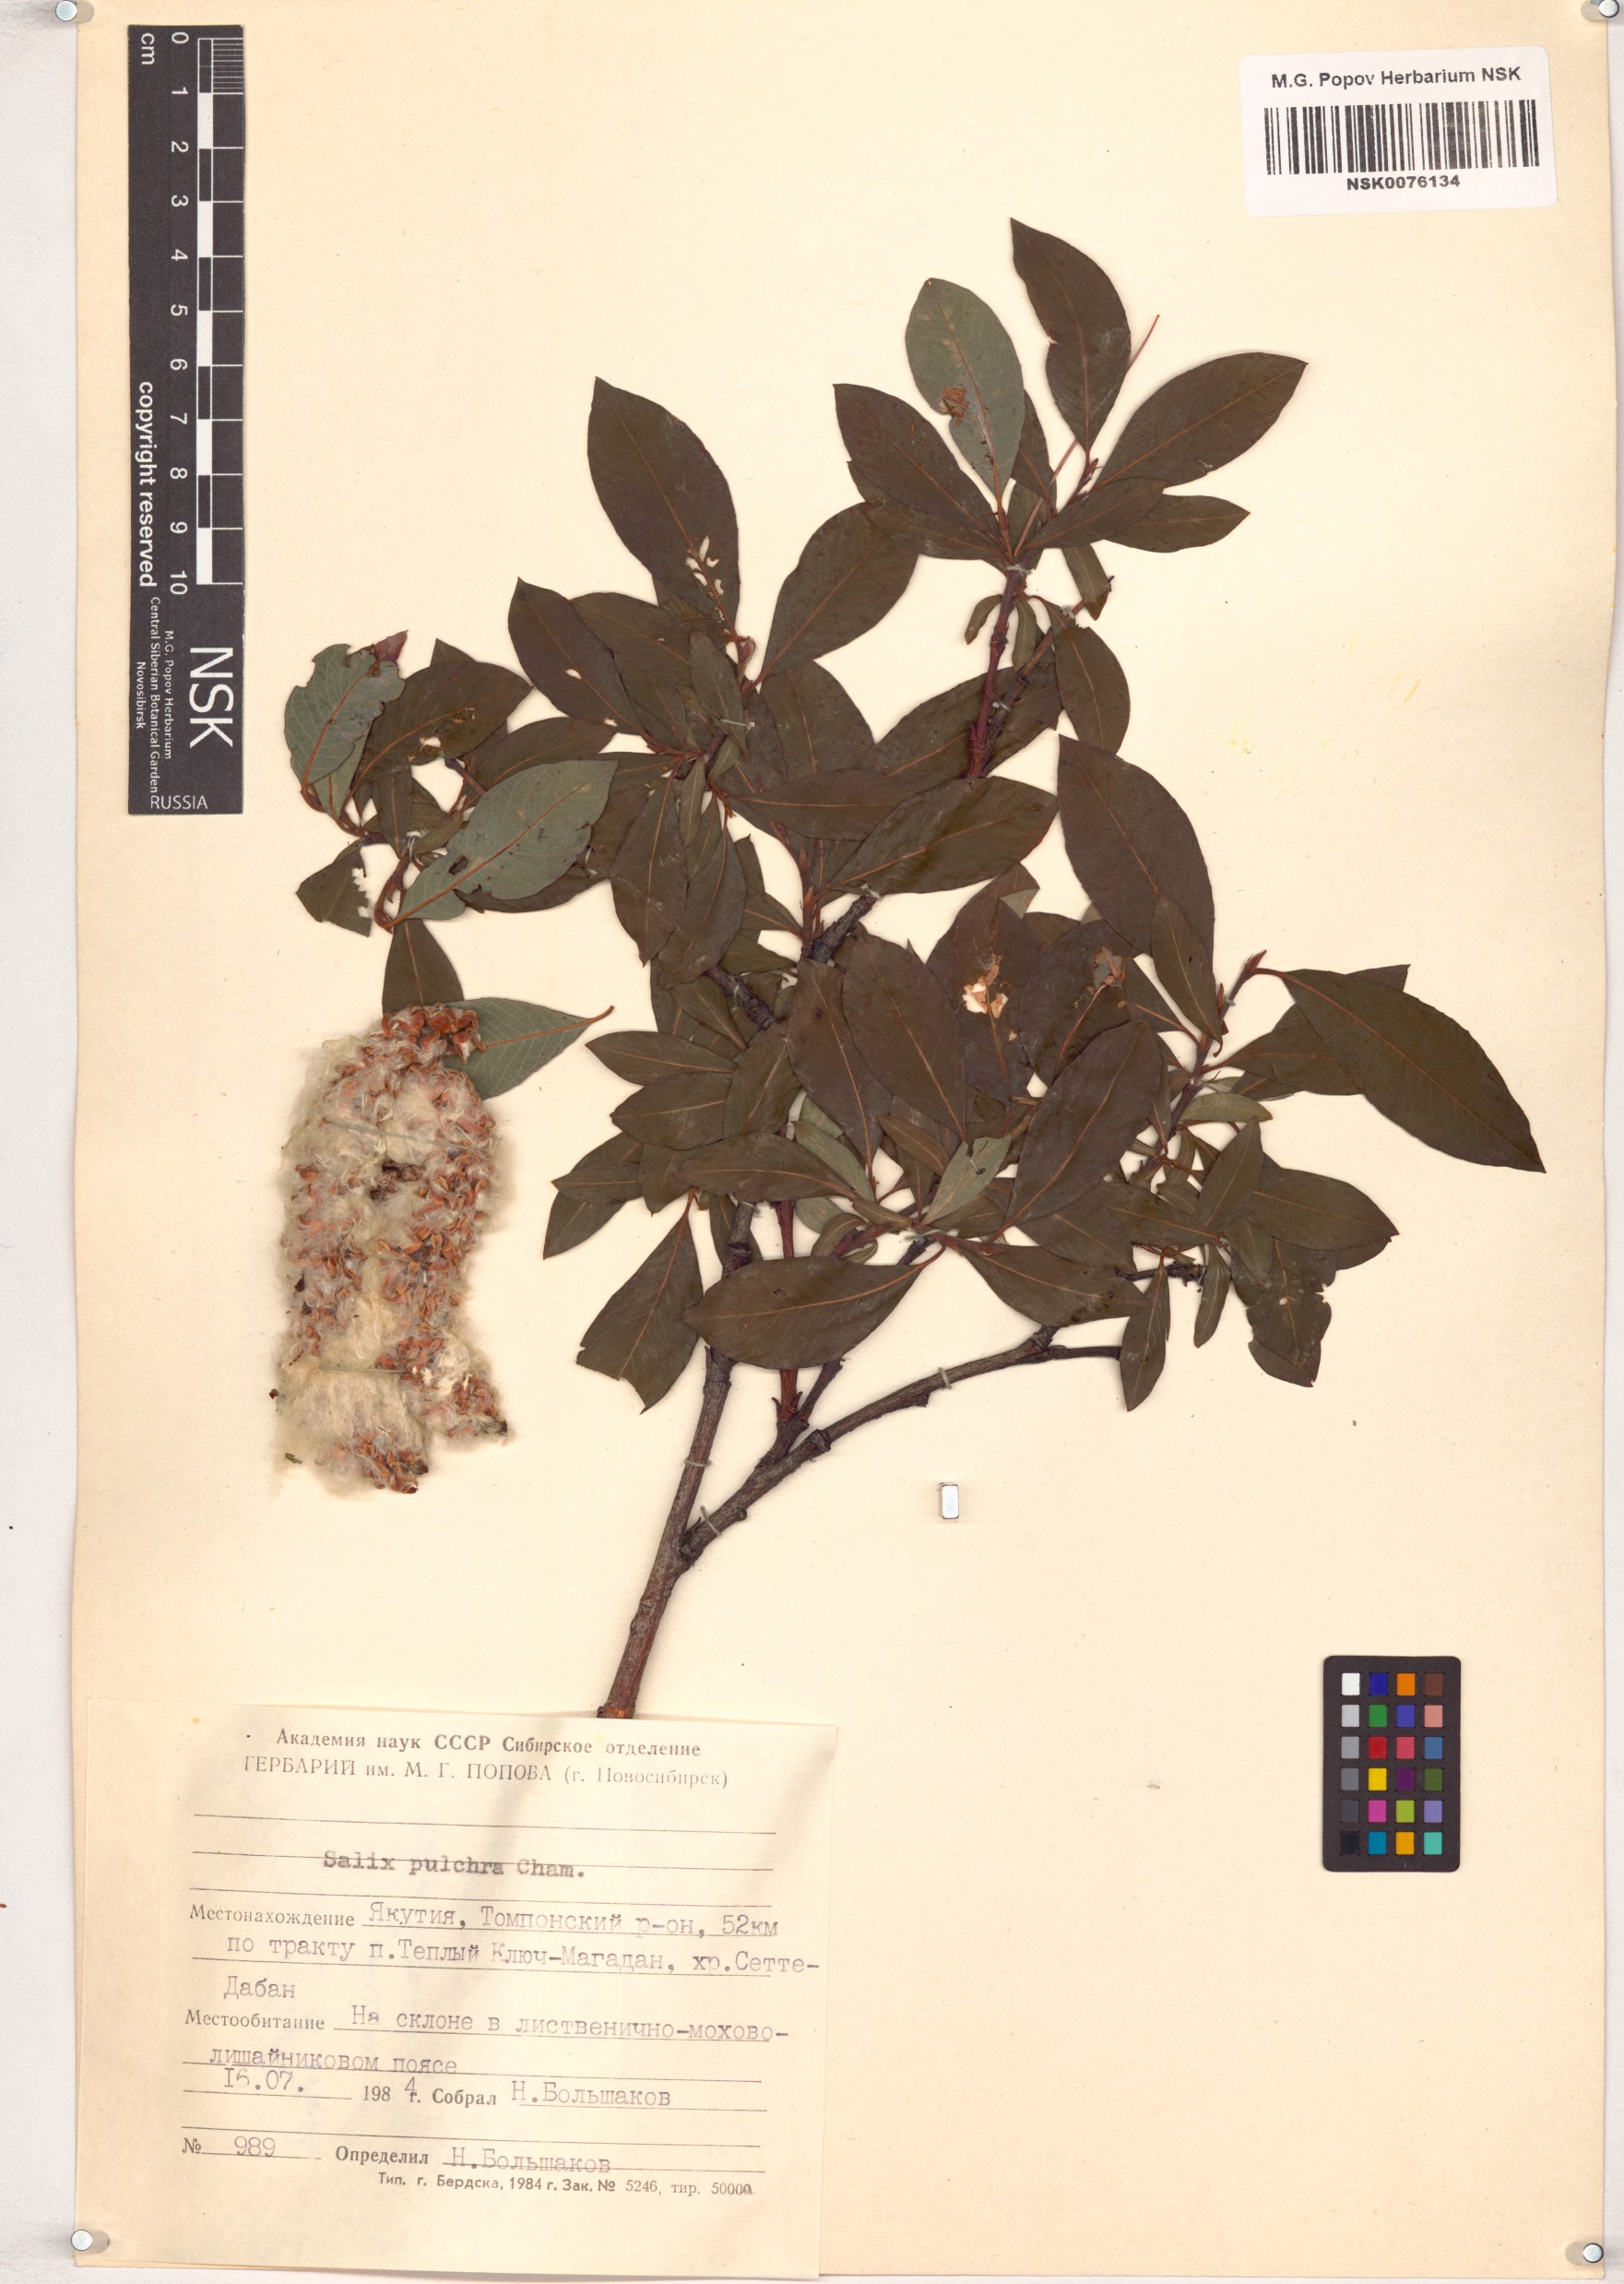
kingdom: Plantae
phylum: Tracheophyta
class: Magnoliopsida
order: Malpighiales
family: Salicaceae
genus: Salix
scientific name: Salix pulchra
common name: Diamond-leaved willow
